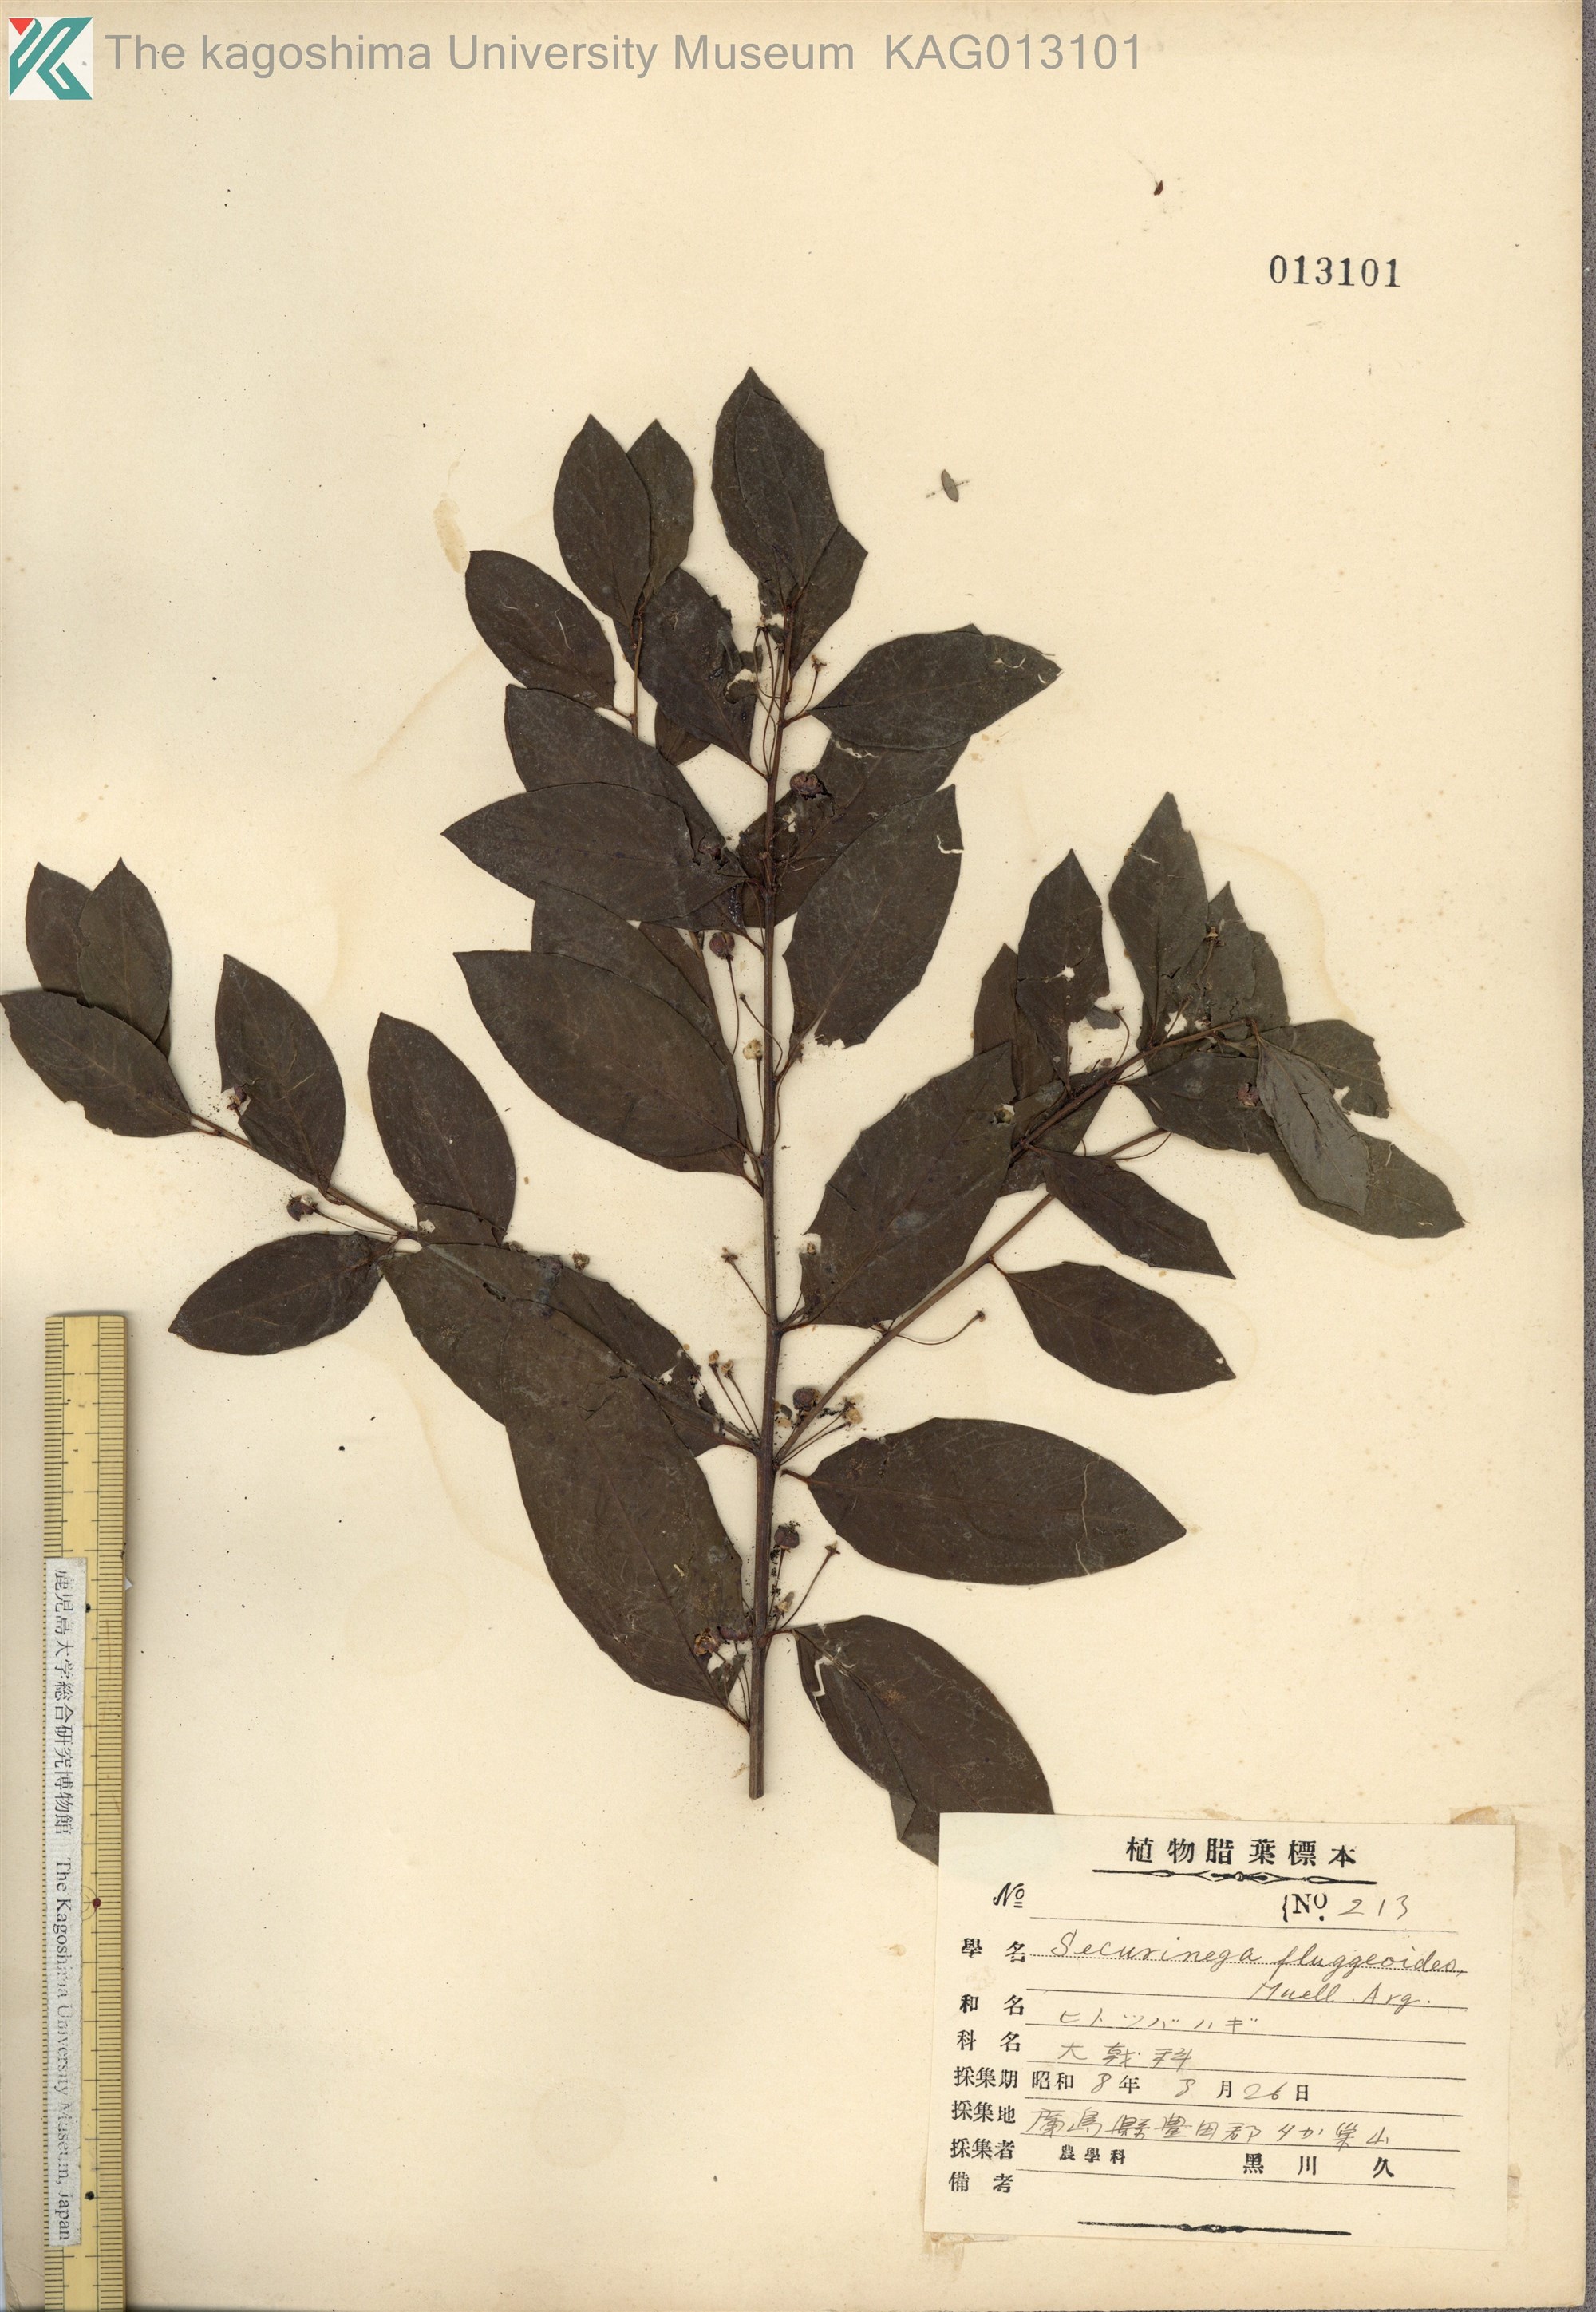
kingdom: Plantae
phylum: Tracheophyta
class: Magnoliopsida
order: Malpighiales
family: Phyllanthaceae
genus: Flueggea
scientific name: Flueggea suffruticosa
